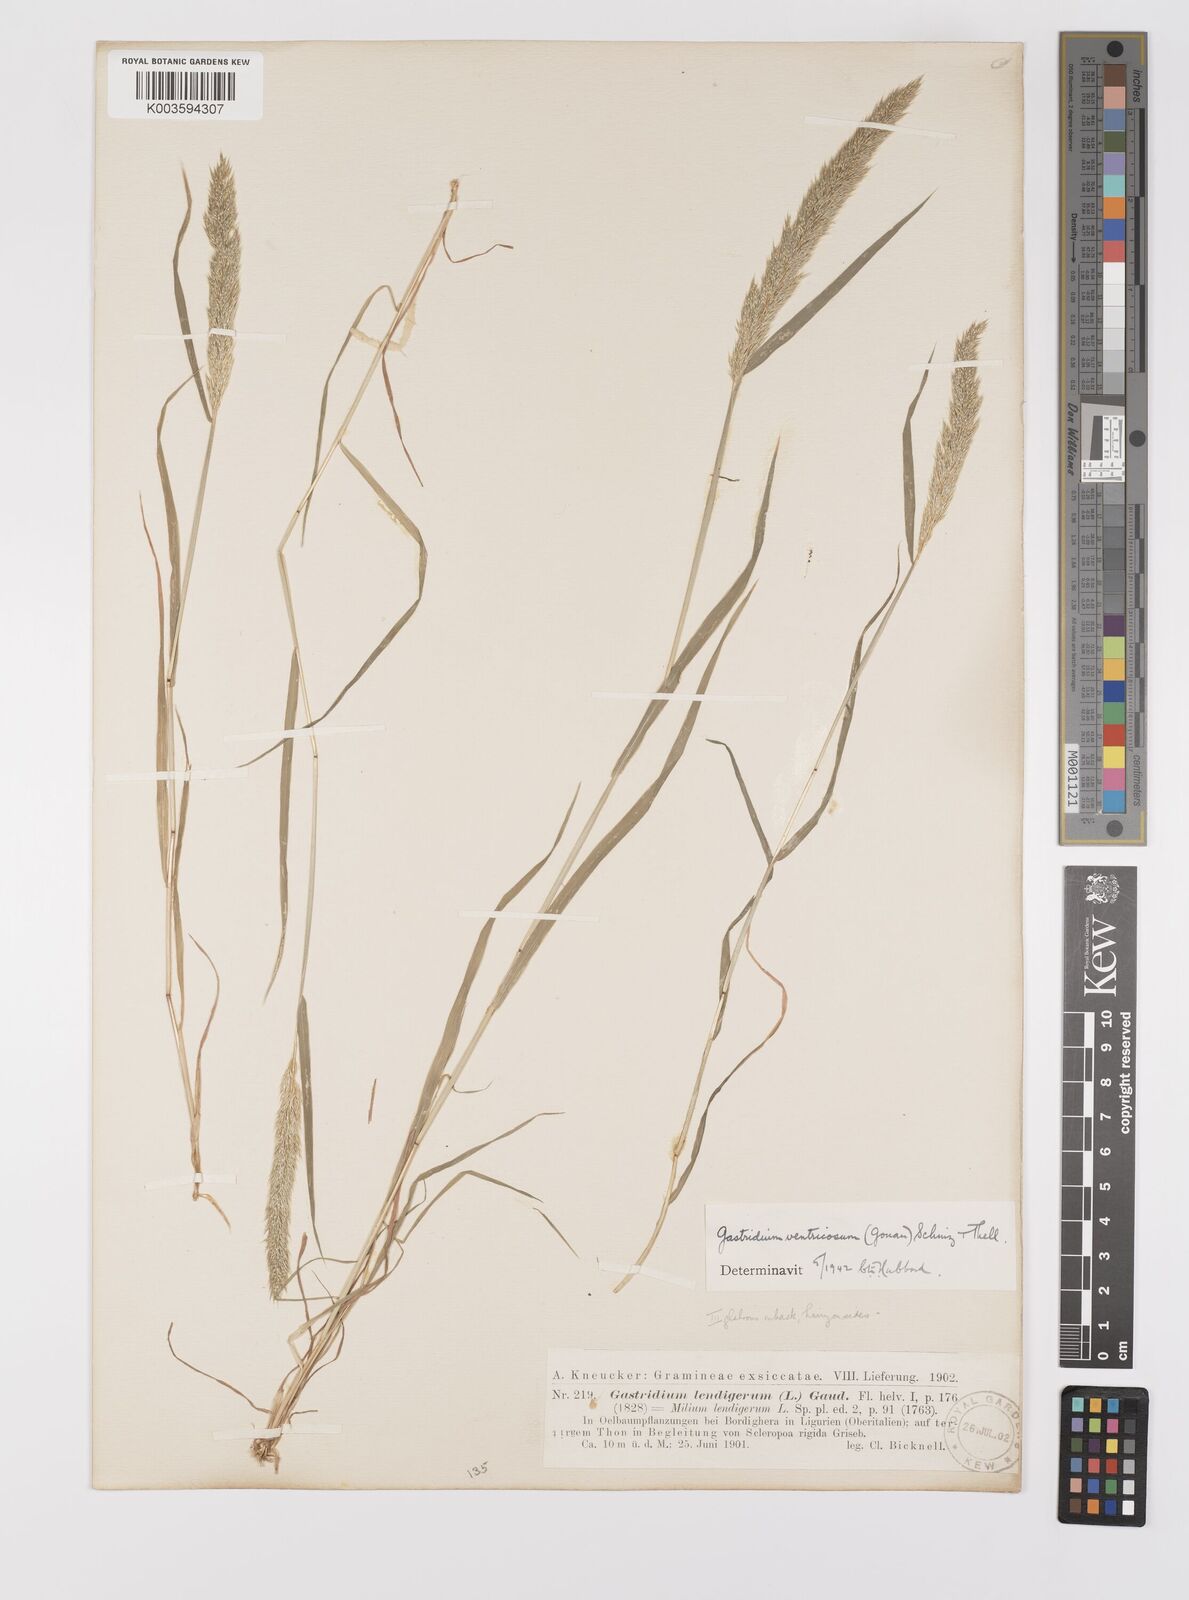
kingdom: Plantae
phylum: Tracheophyta
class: Liliopsida
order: Poales
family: Poaceae
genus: Gastridium
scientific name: Gastridium ventricosum
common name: Nit-grass
